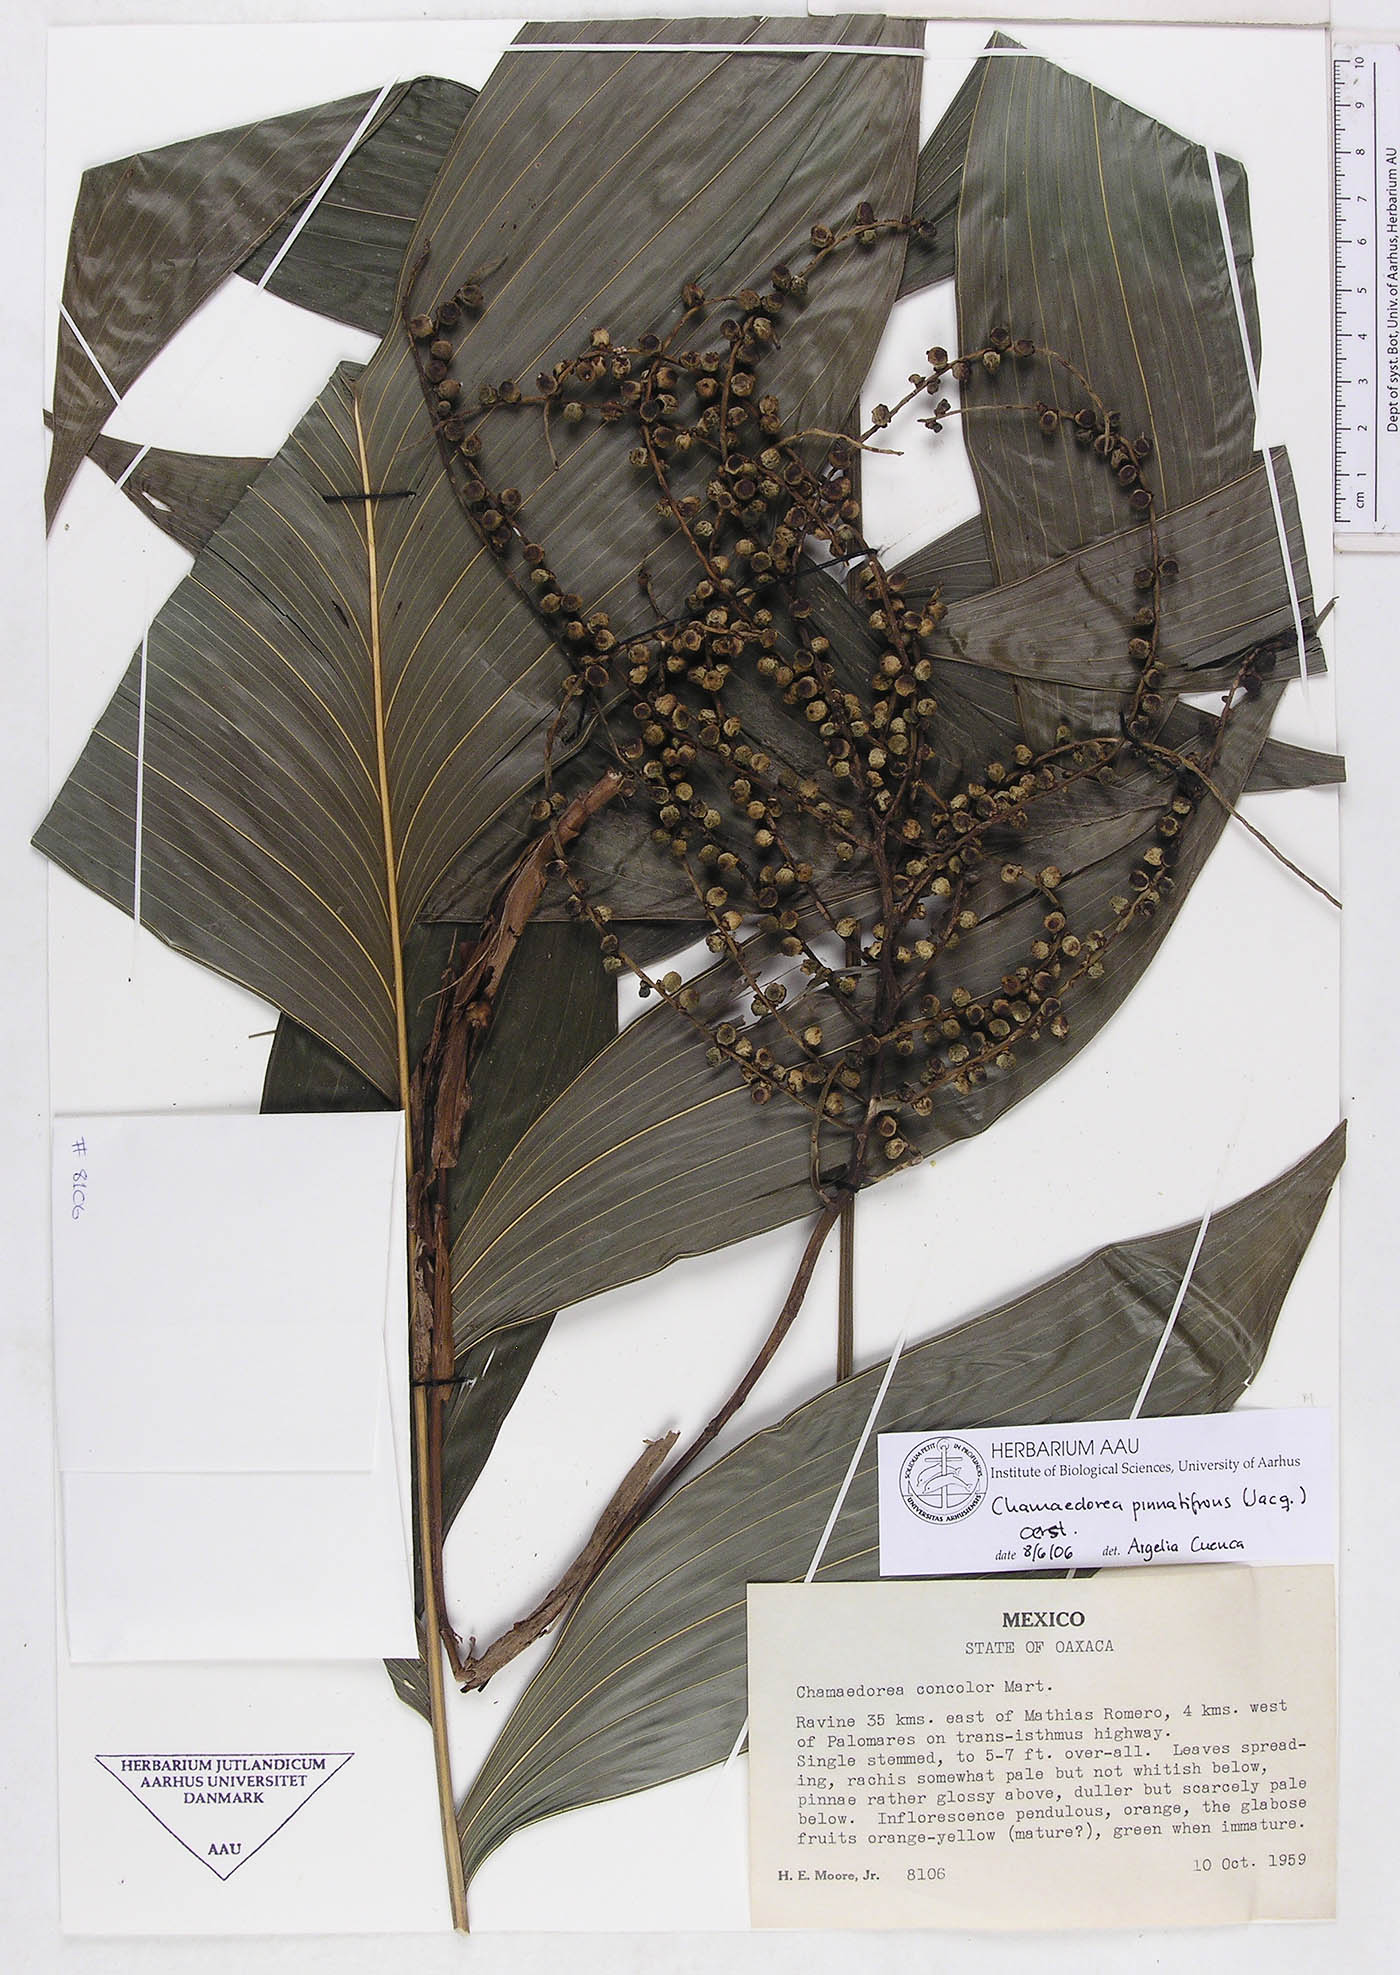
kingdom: Plantae
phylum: Tracheophyta
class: Liliopsida
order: Arecales
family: Arecaceae
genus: Chamaedorea
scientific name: Chamaedorea pinnatifrons
